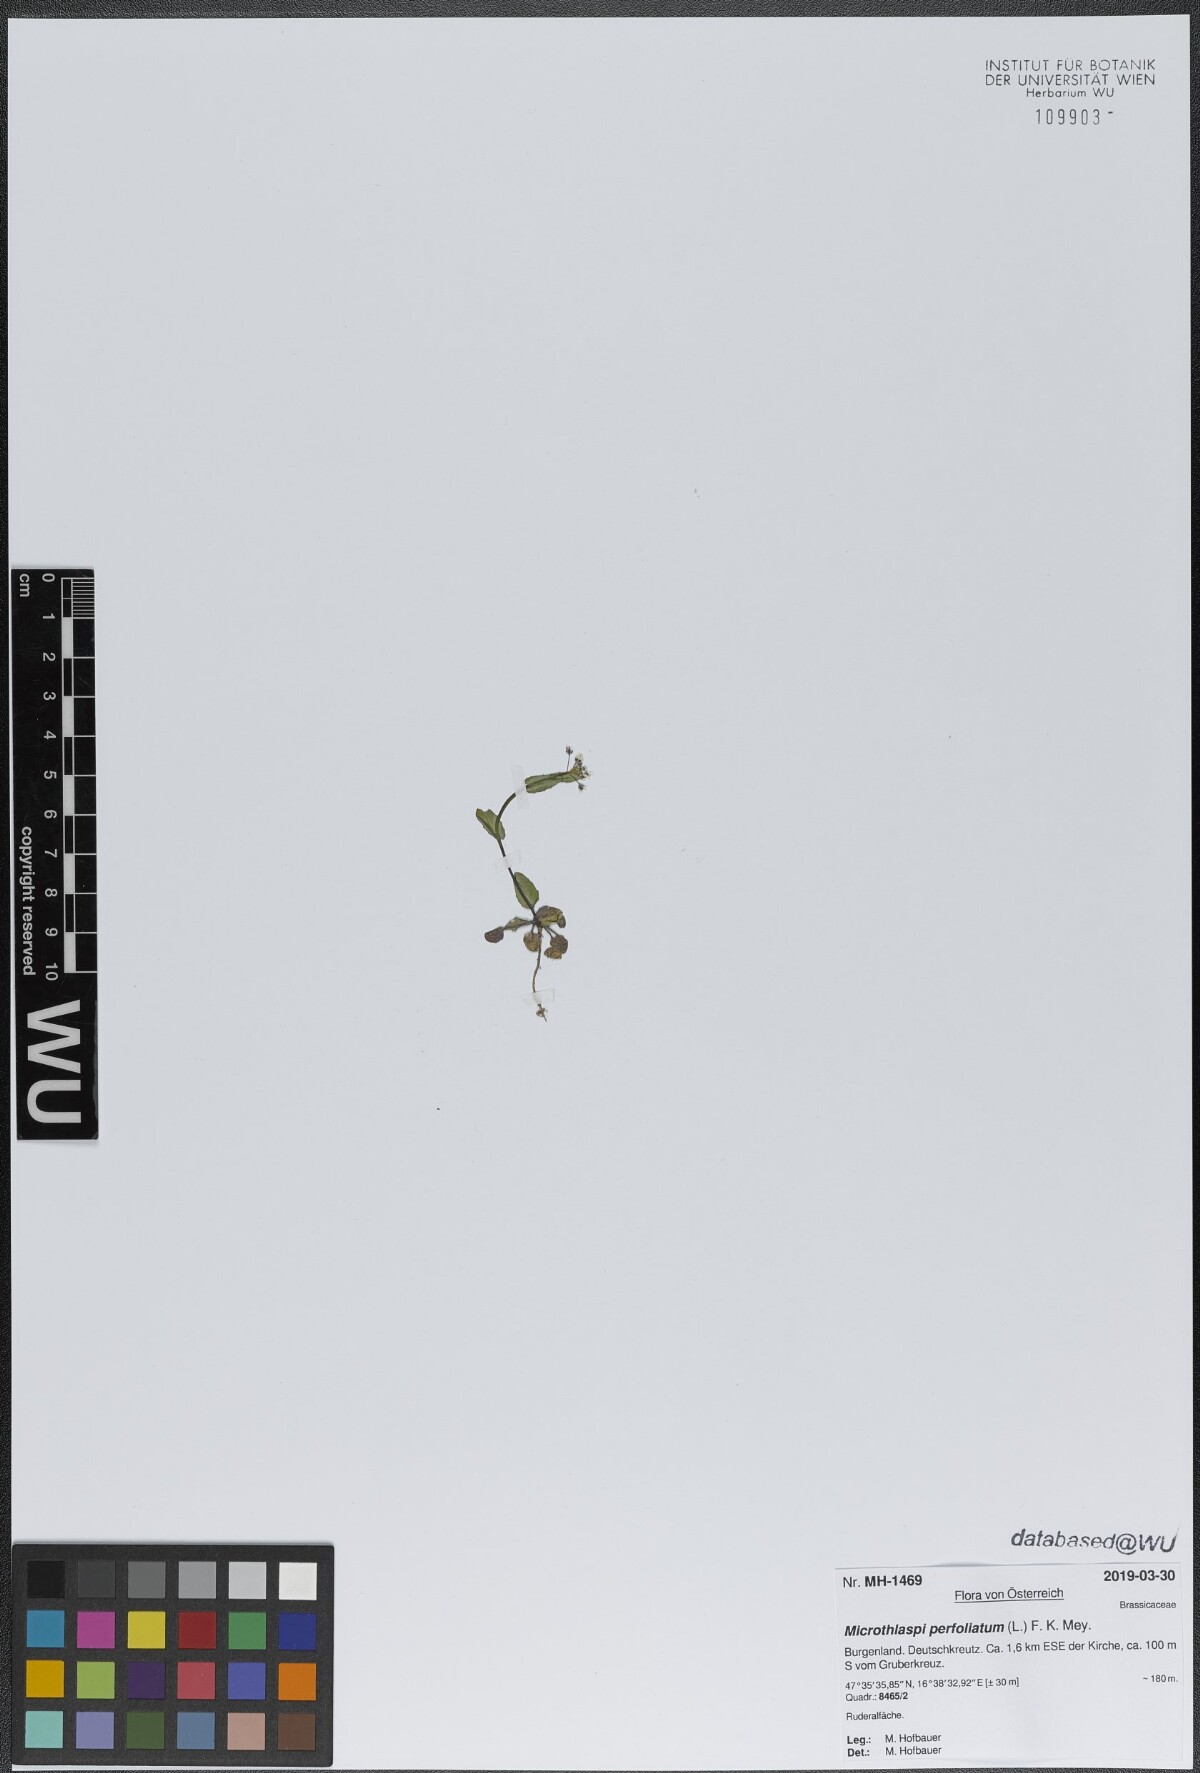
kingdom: Plantae
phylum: Tracheophyta
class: Magnoliopsida
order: Brassicales
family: Brassicaceae
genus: Noccaea
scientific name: Noccaea perfoliata
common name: Perfoliate pennycress
